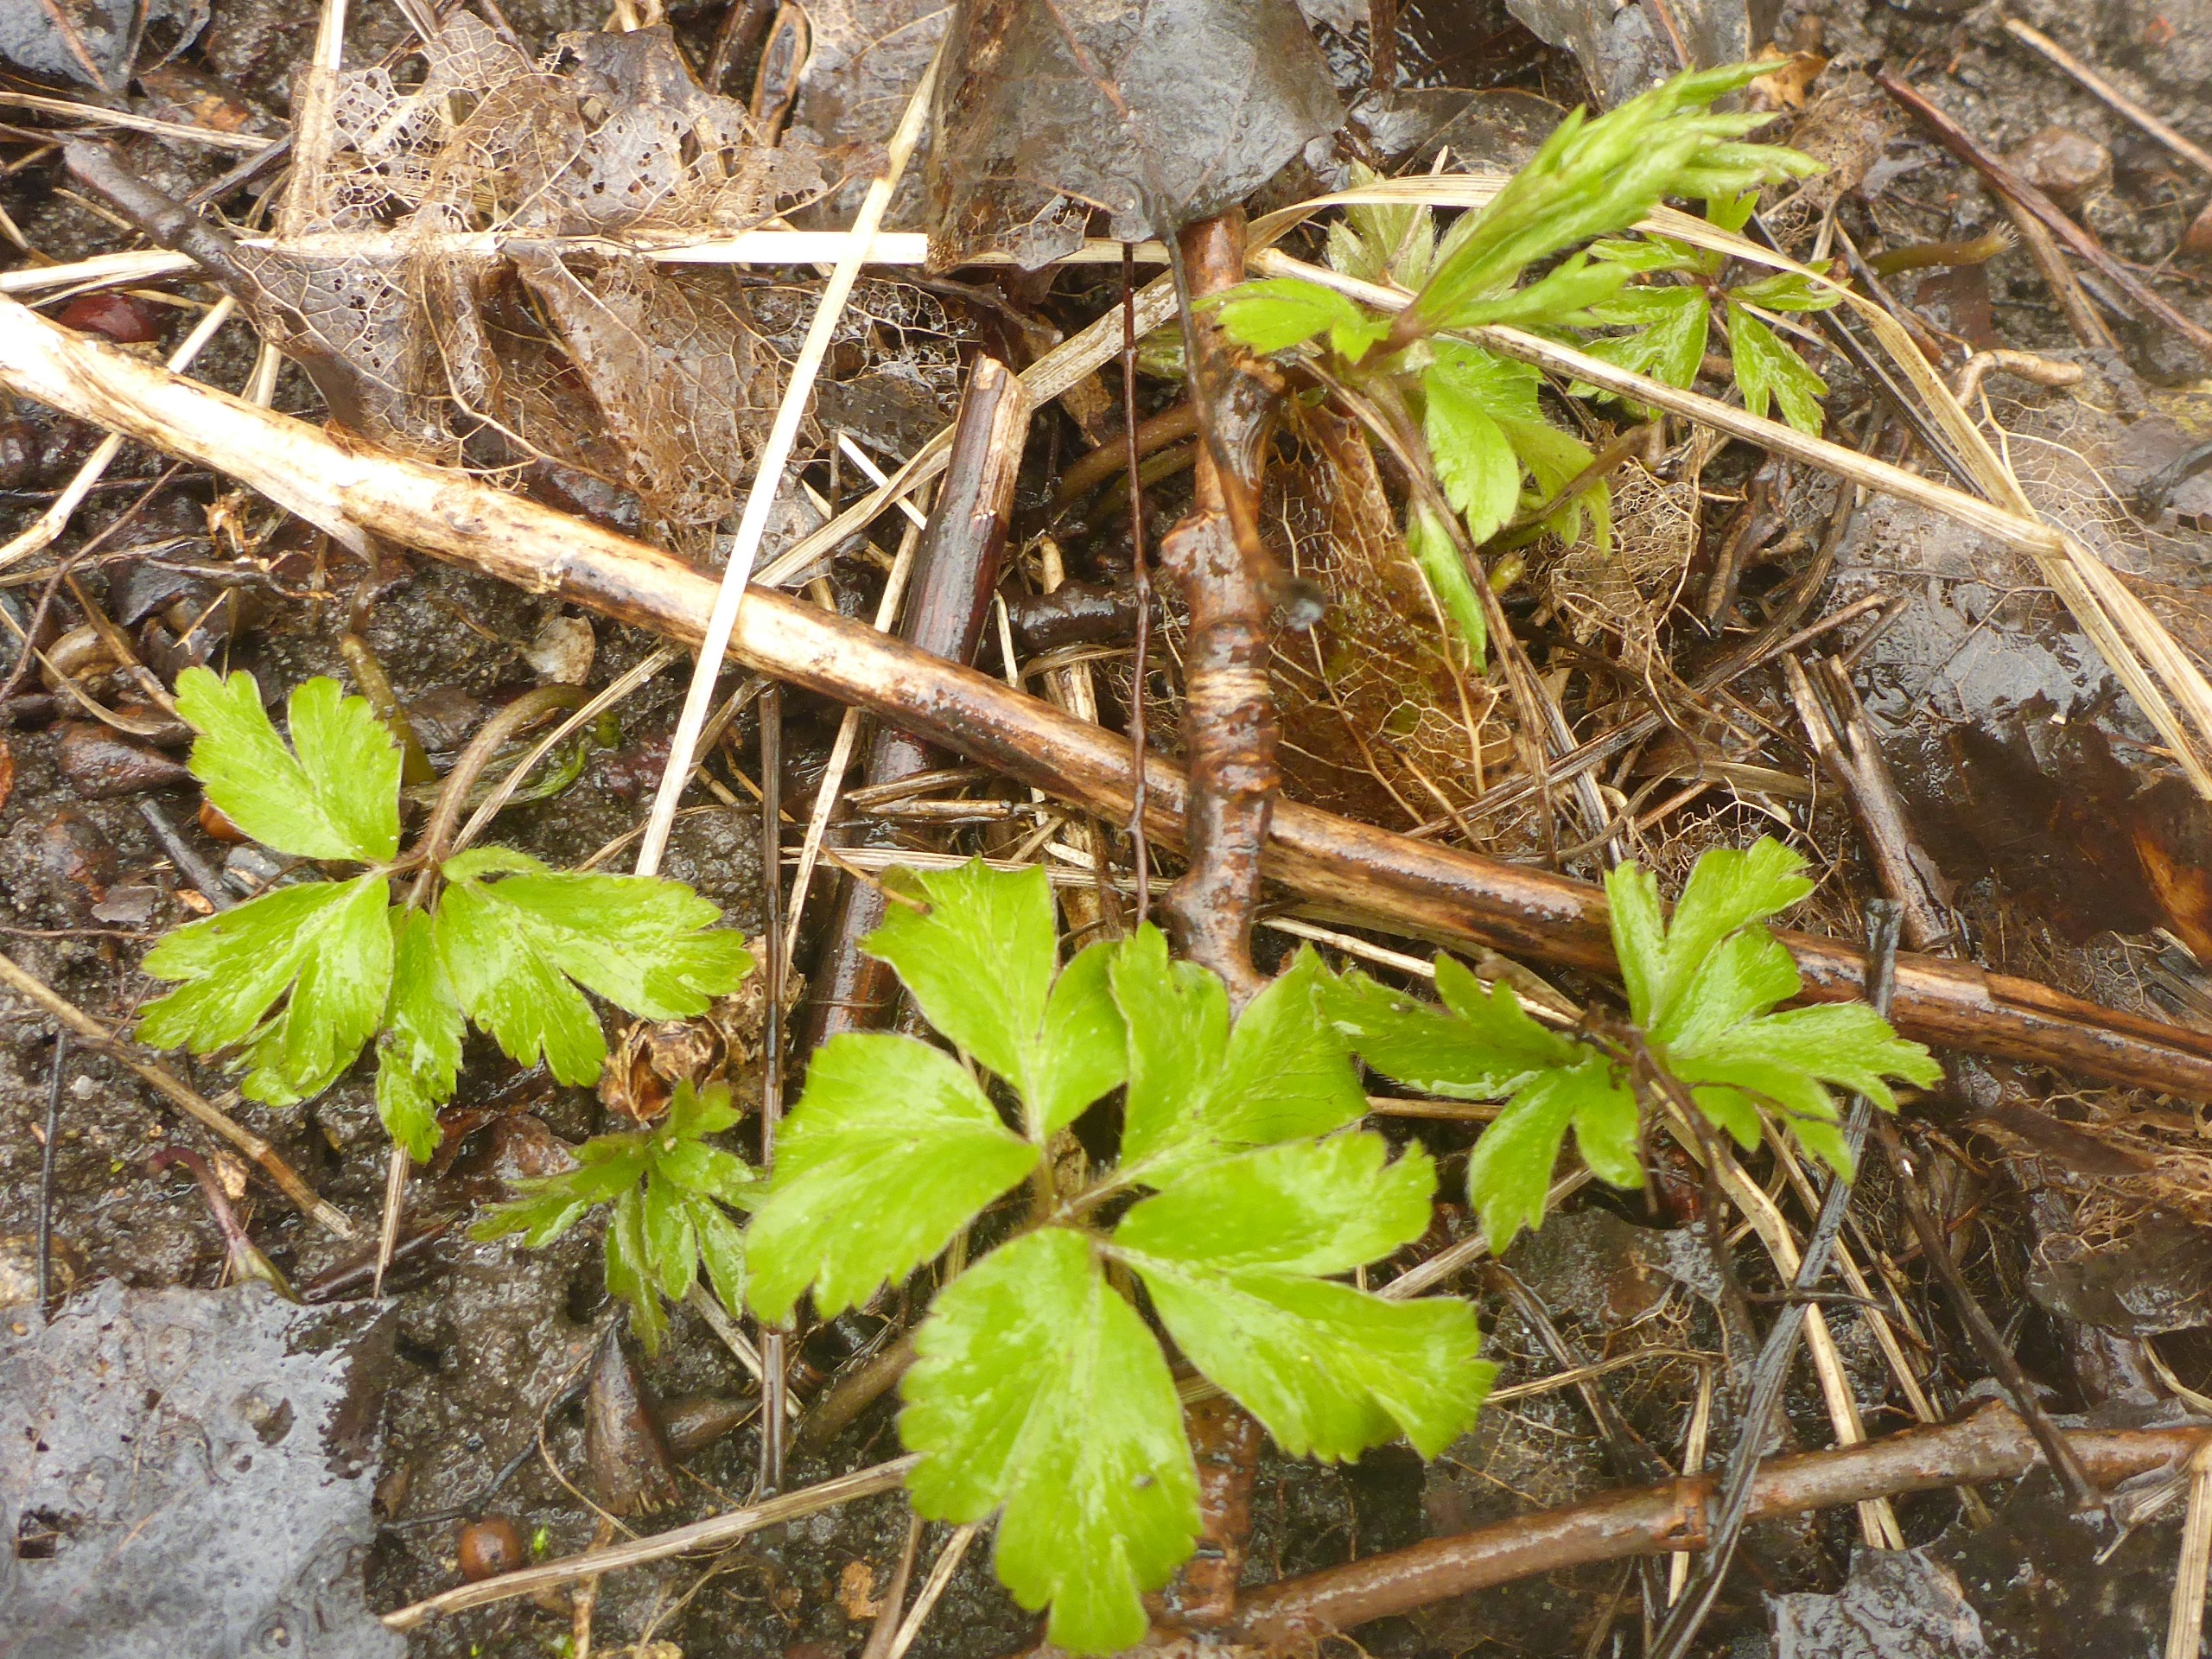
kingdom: Plantae
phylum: Tracheophyta
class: Magnoliopsida
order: Ranunculales
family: Ranunculaceae
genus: Anemone
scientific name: Anemone nemorosa
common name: Hvid anemone
